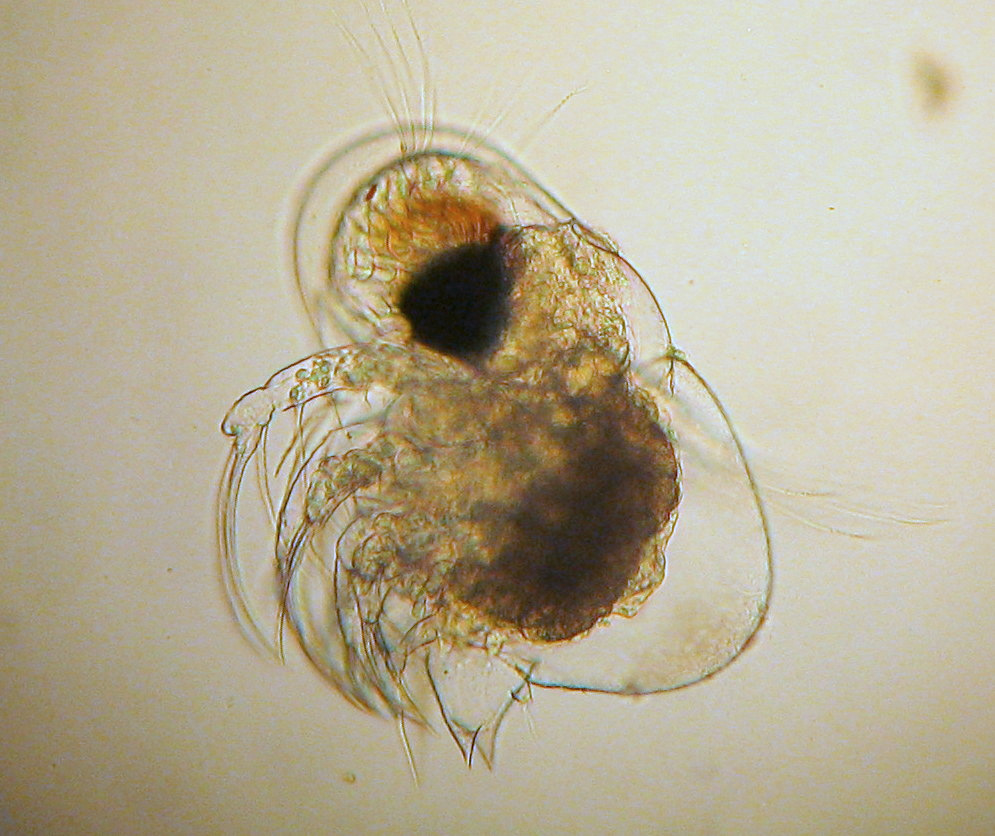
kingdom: Animalia
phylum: Arthropoda
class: Branchiopoda
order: Diplostraca
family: Podonidae
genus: Podon
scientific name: Podon leuckarti
